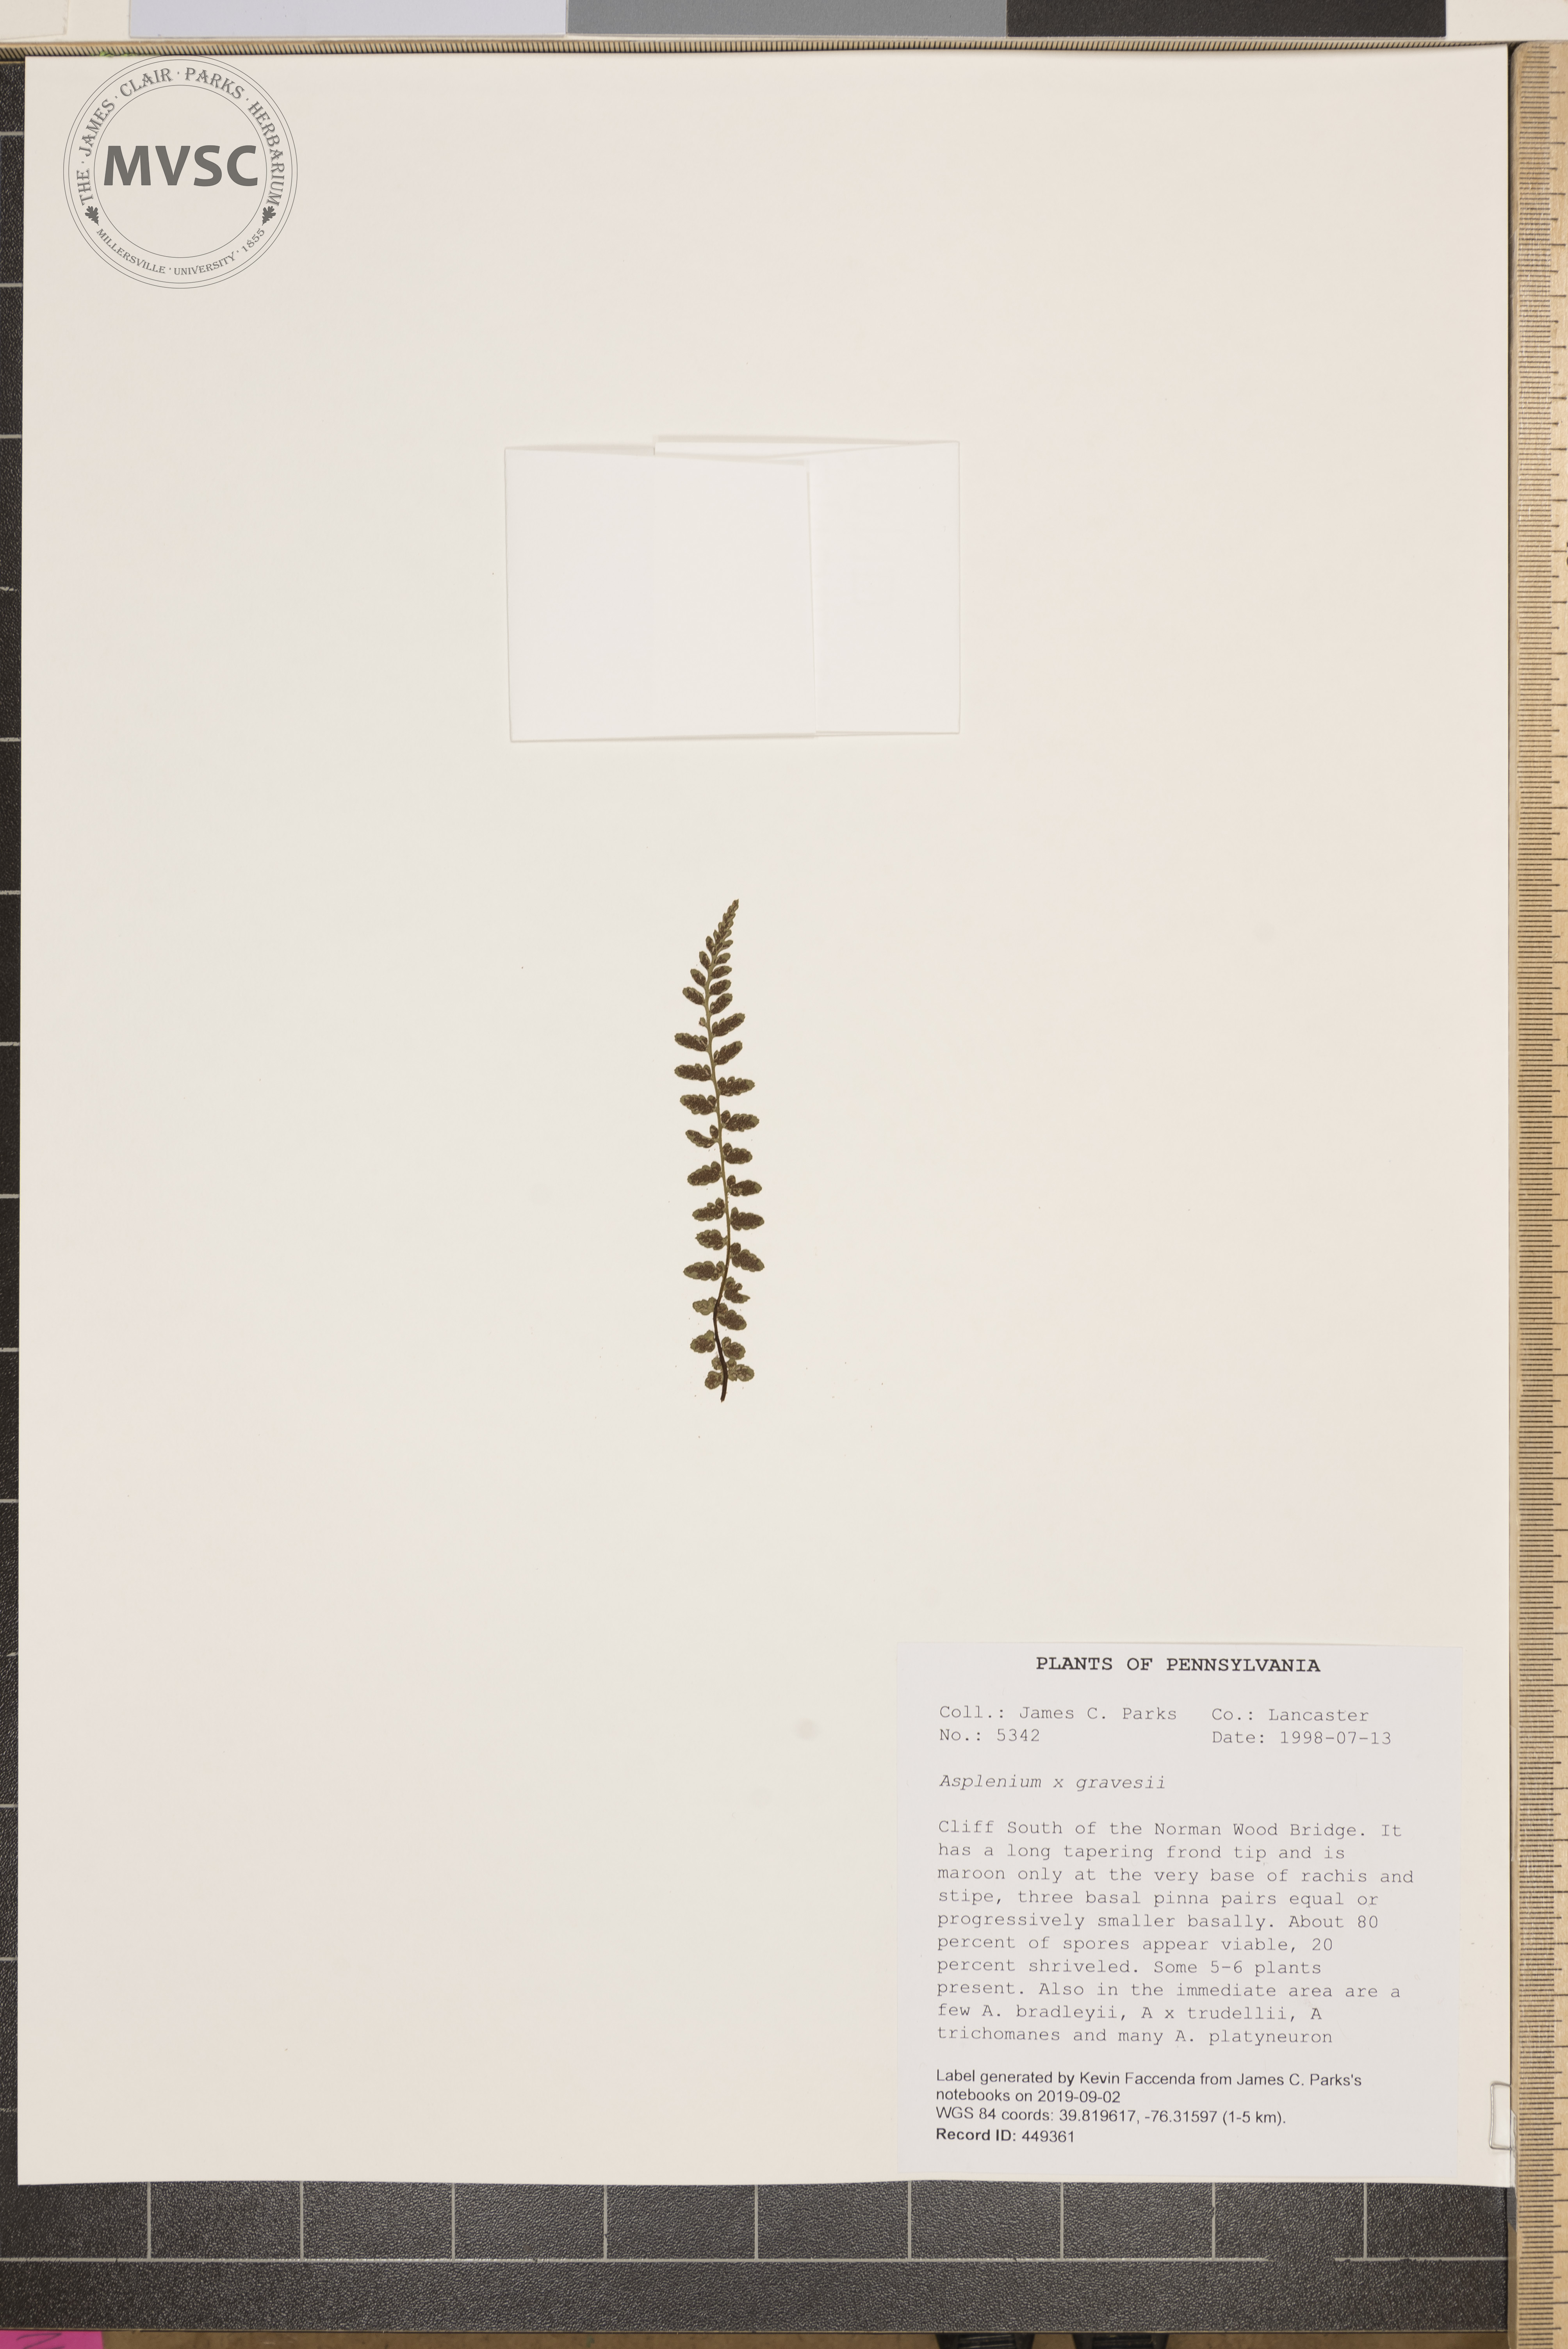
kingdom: Plantae
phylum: Tracheophyta
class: Polypodiopsida
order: Polypodiales
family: Aspleniaceae
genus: Asplenium
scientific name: Asplenium bradleyi
